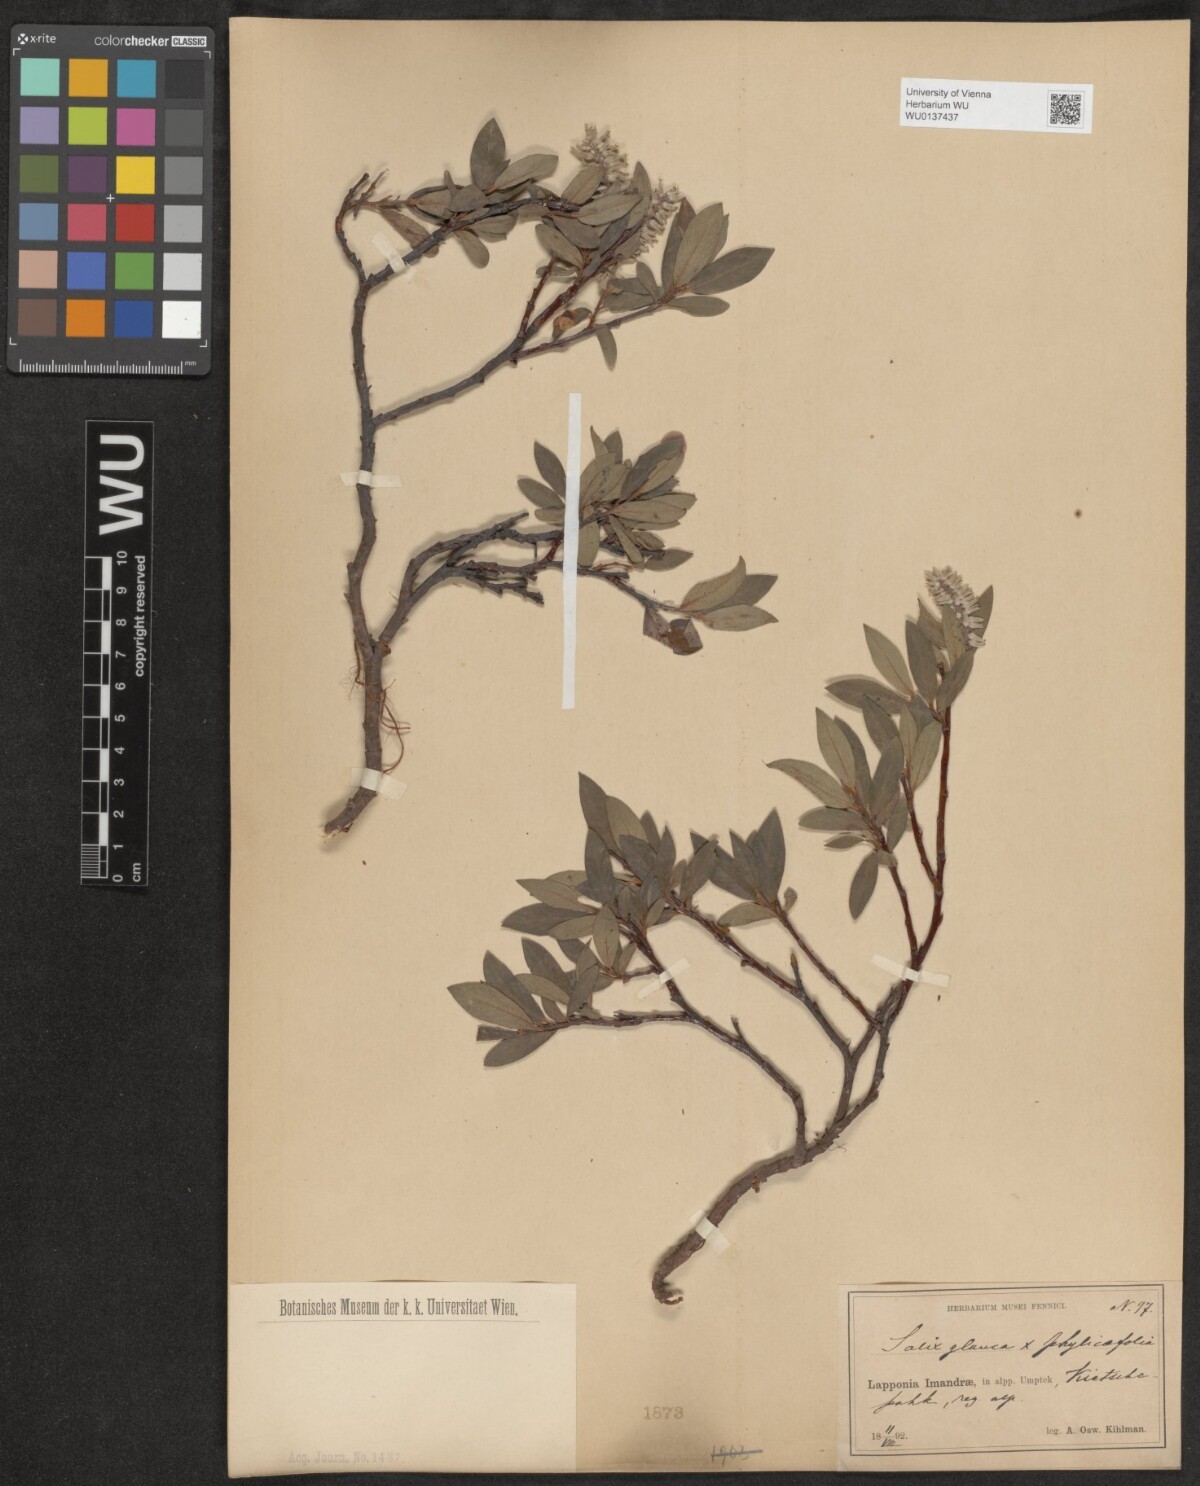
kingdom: Plantae
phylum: Tracheophyta
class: Magnoliopsida
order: Malpighiales
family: Salicaceae
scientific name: Salicaceae
